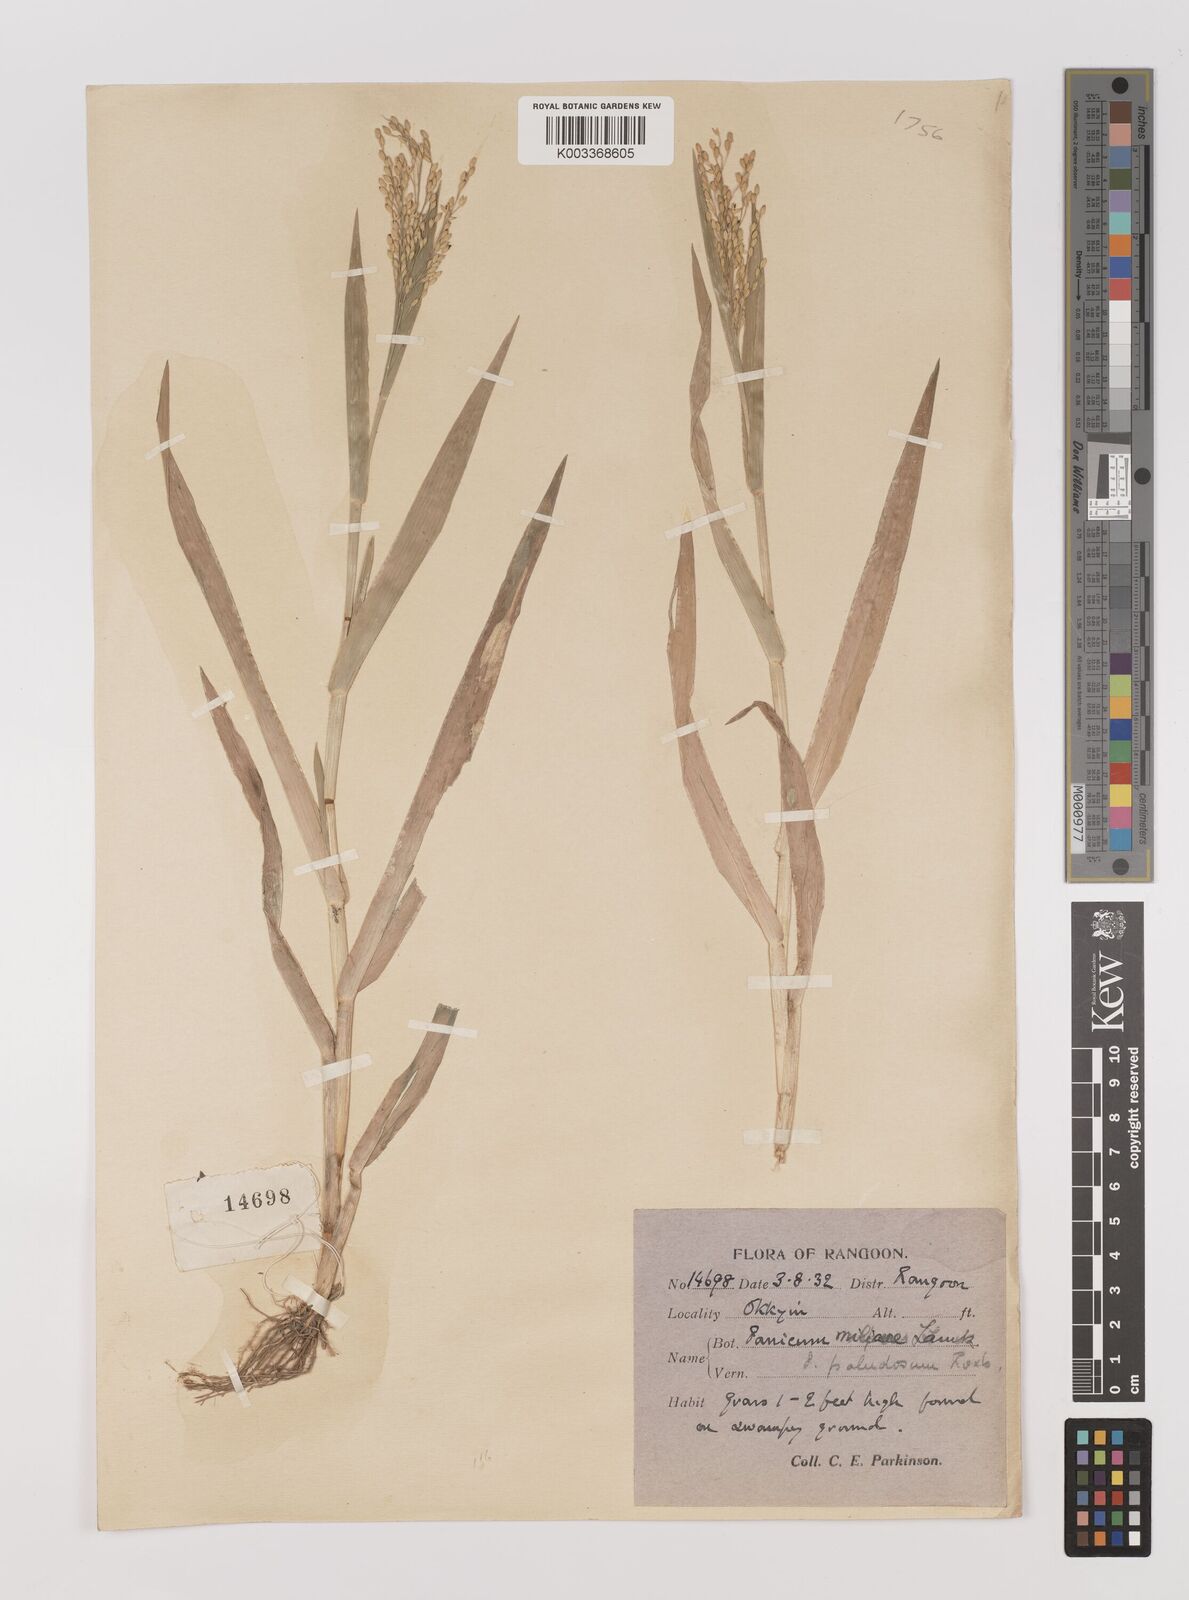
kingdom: Plantae
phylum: Tracheophyta
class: Liliopsida
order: Poales
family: Poaceae
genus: Panicum
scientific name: Panicum sumatrense
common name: Little millet
